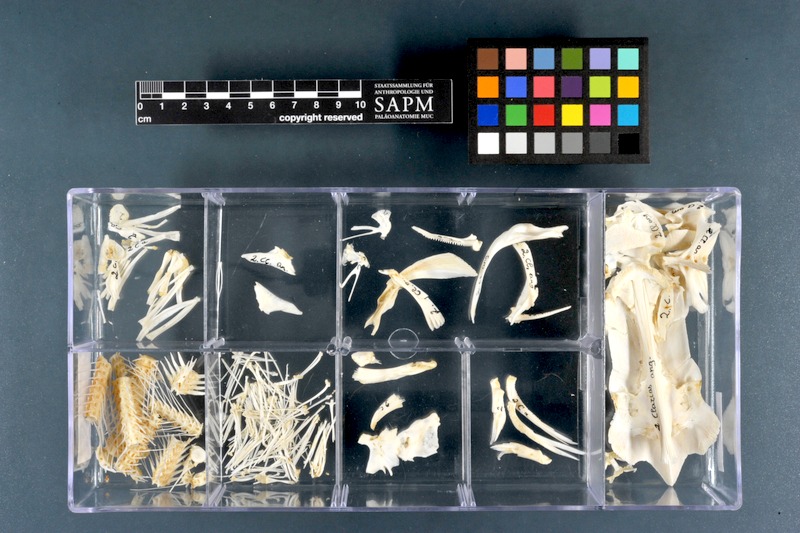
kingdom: Animalia
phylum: Chordata
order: Siluriformes
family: Clariidae
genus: Clarias
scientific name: Clarias anguillaris
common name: Catfish
